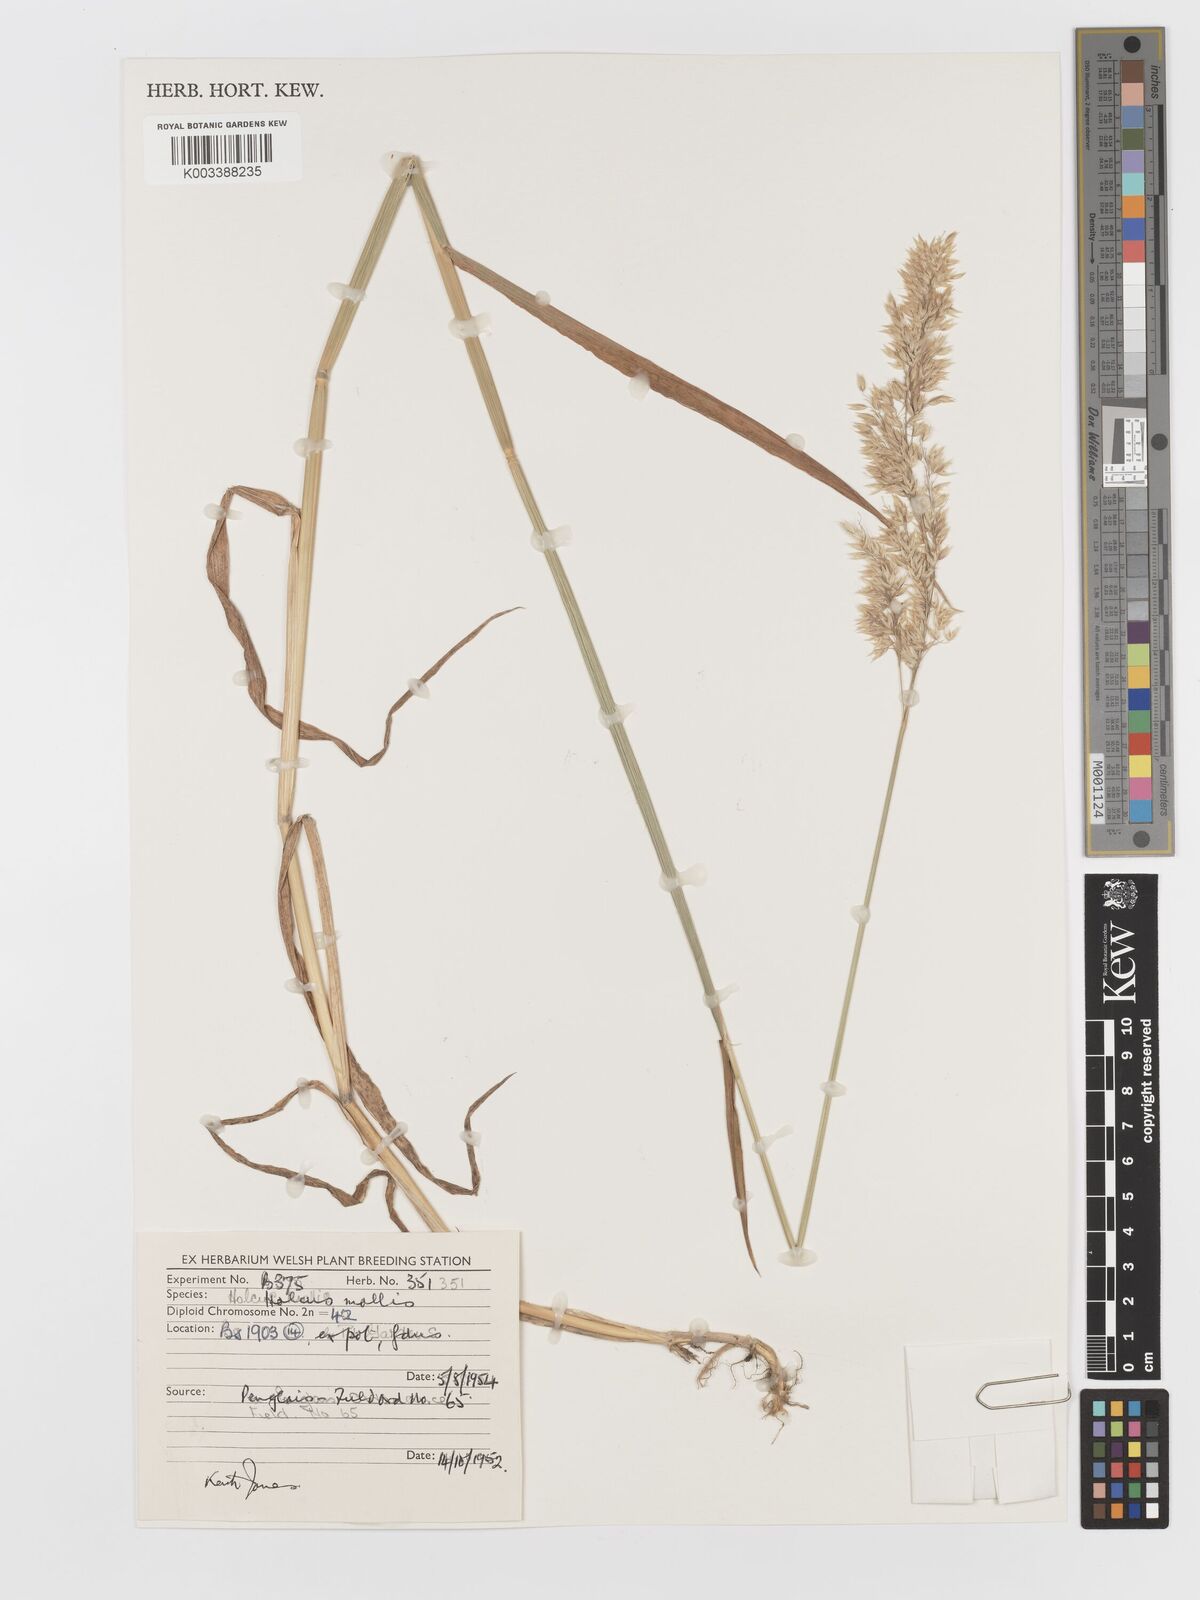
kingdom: Plantae
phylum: Tracheophyta
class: Liliopsida
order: Poales
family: Poaceae
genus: Holcus
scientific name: Holcus mollis
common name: Creeping velvetgrass
